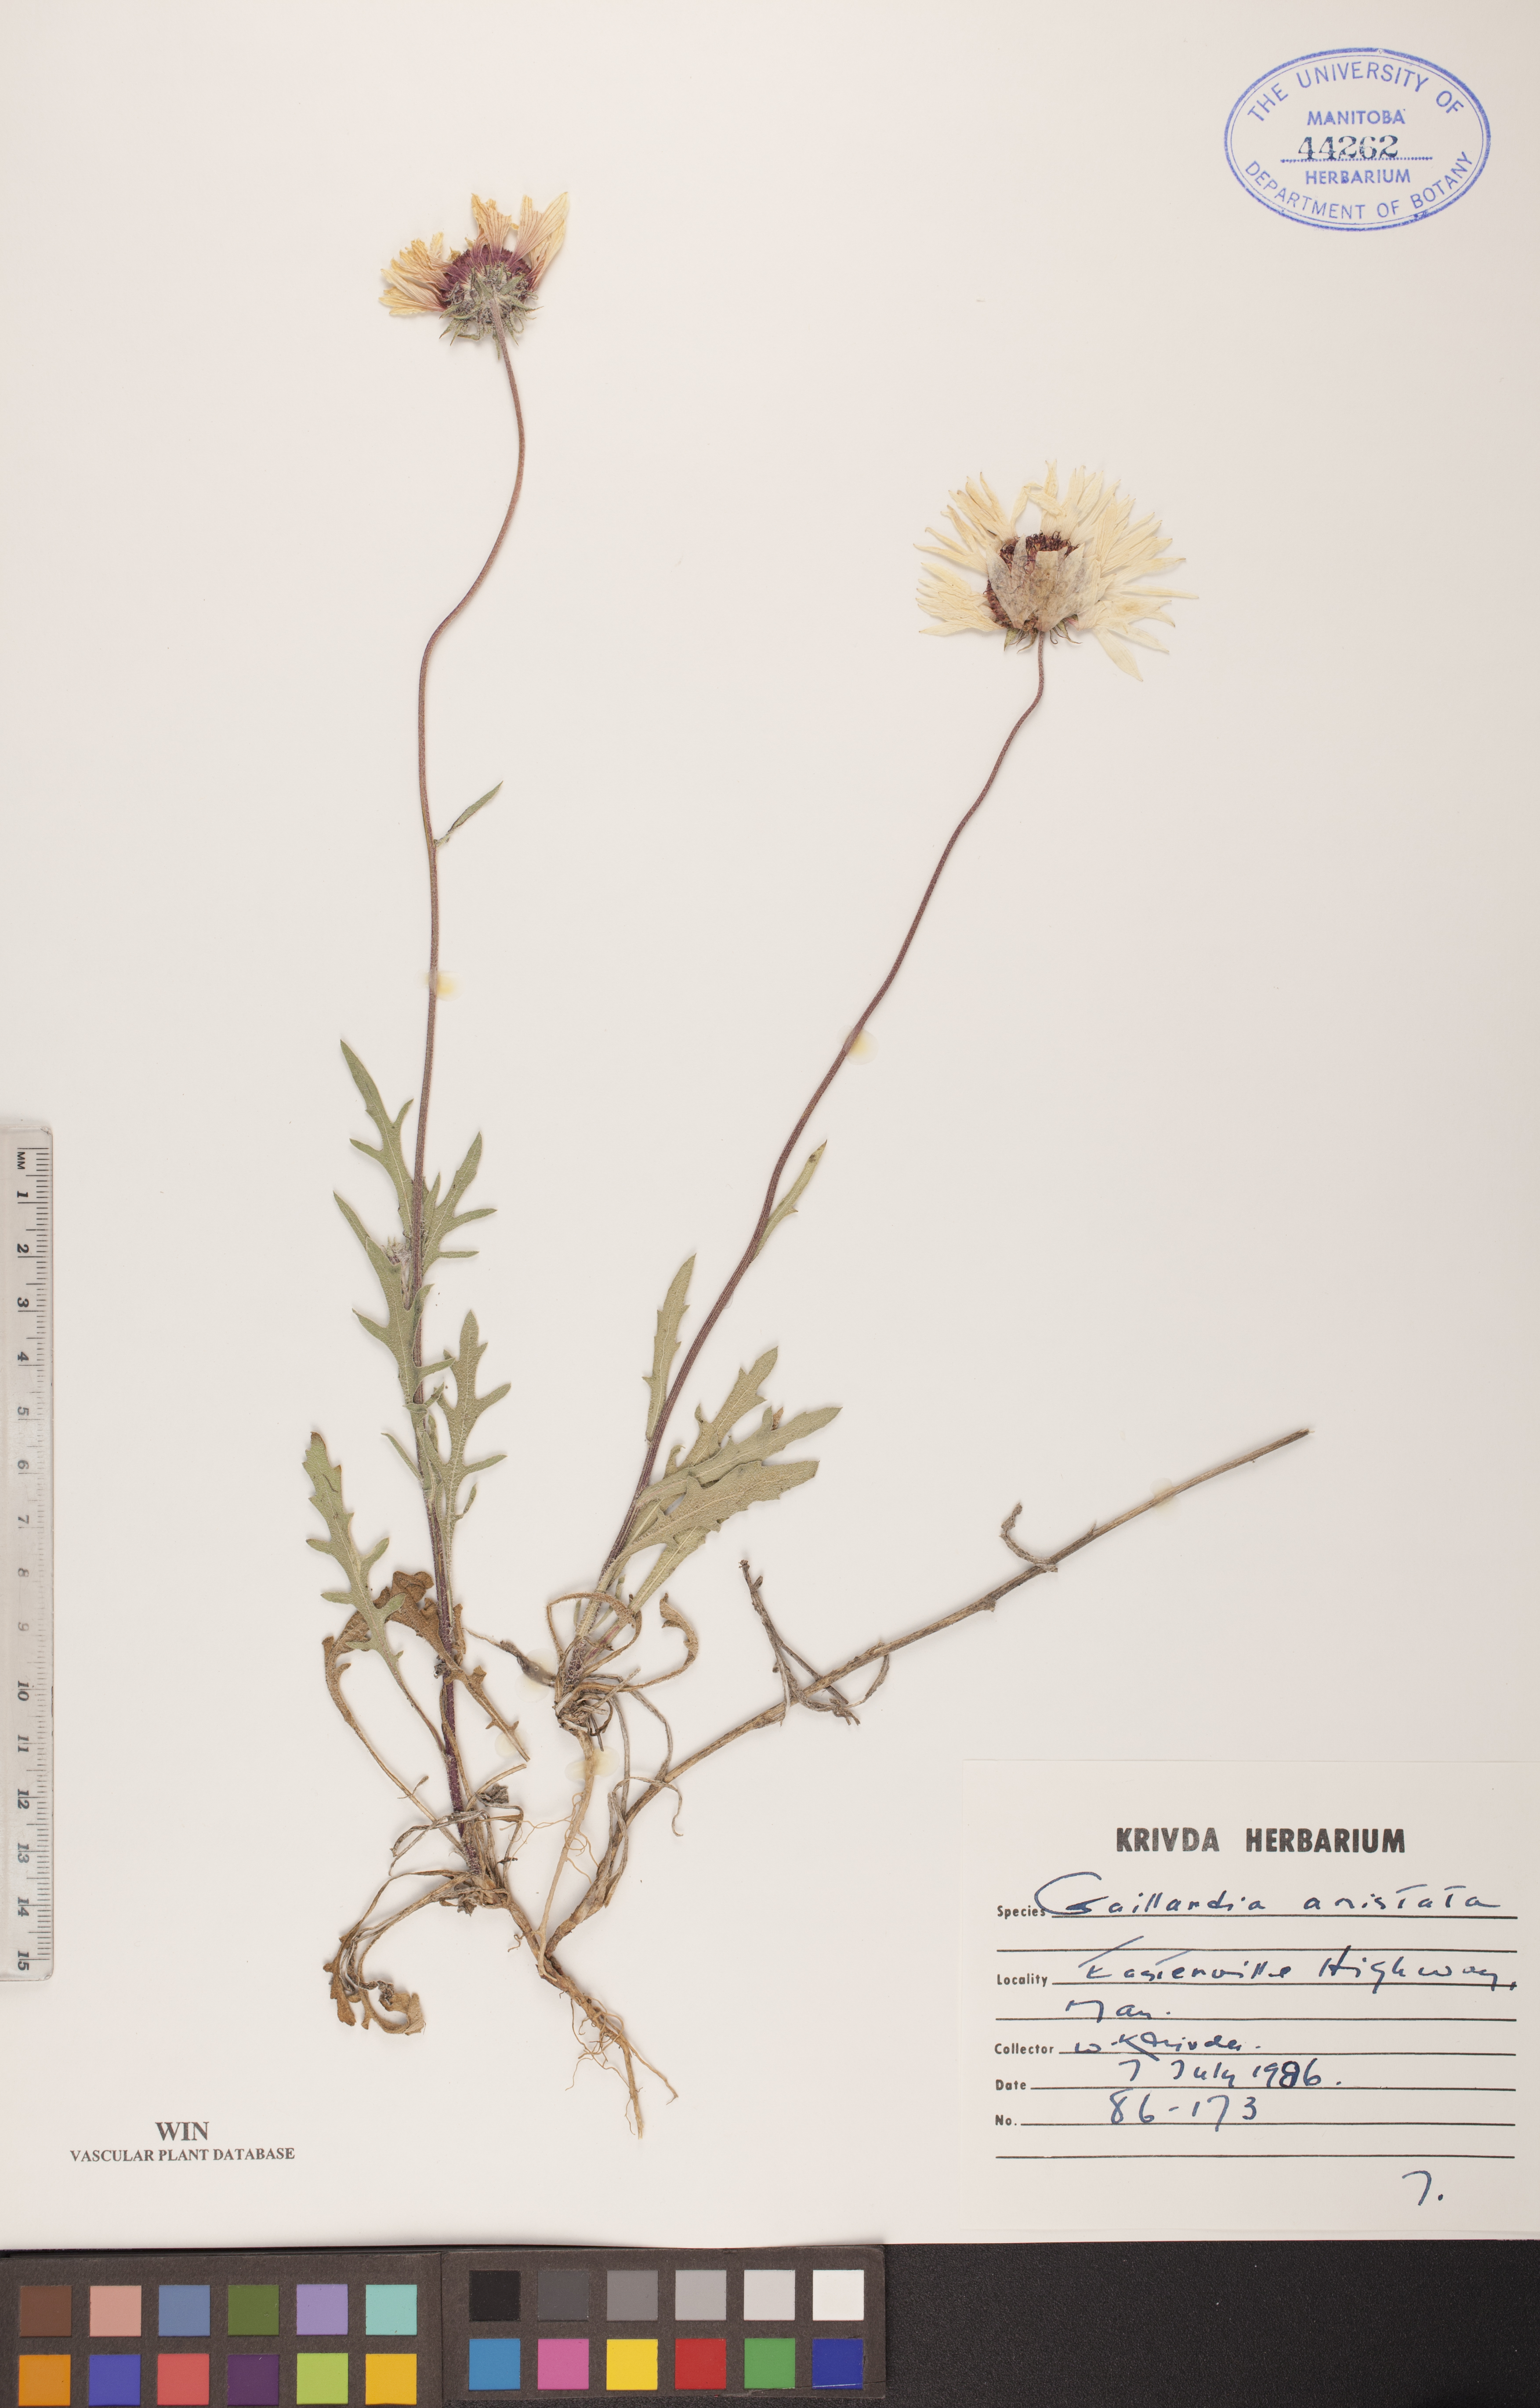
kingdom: Plantae
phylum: Tracheophyta
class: Magnoliopsida
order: Asterales
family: Asteraceae
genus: Gaillardia
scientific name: Gaillardia aristata
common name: Blanket-flower
